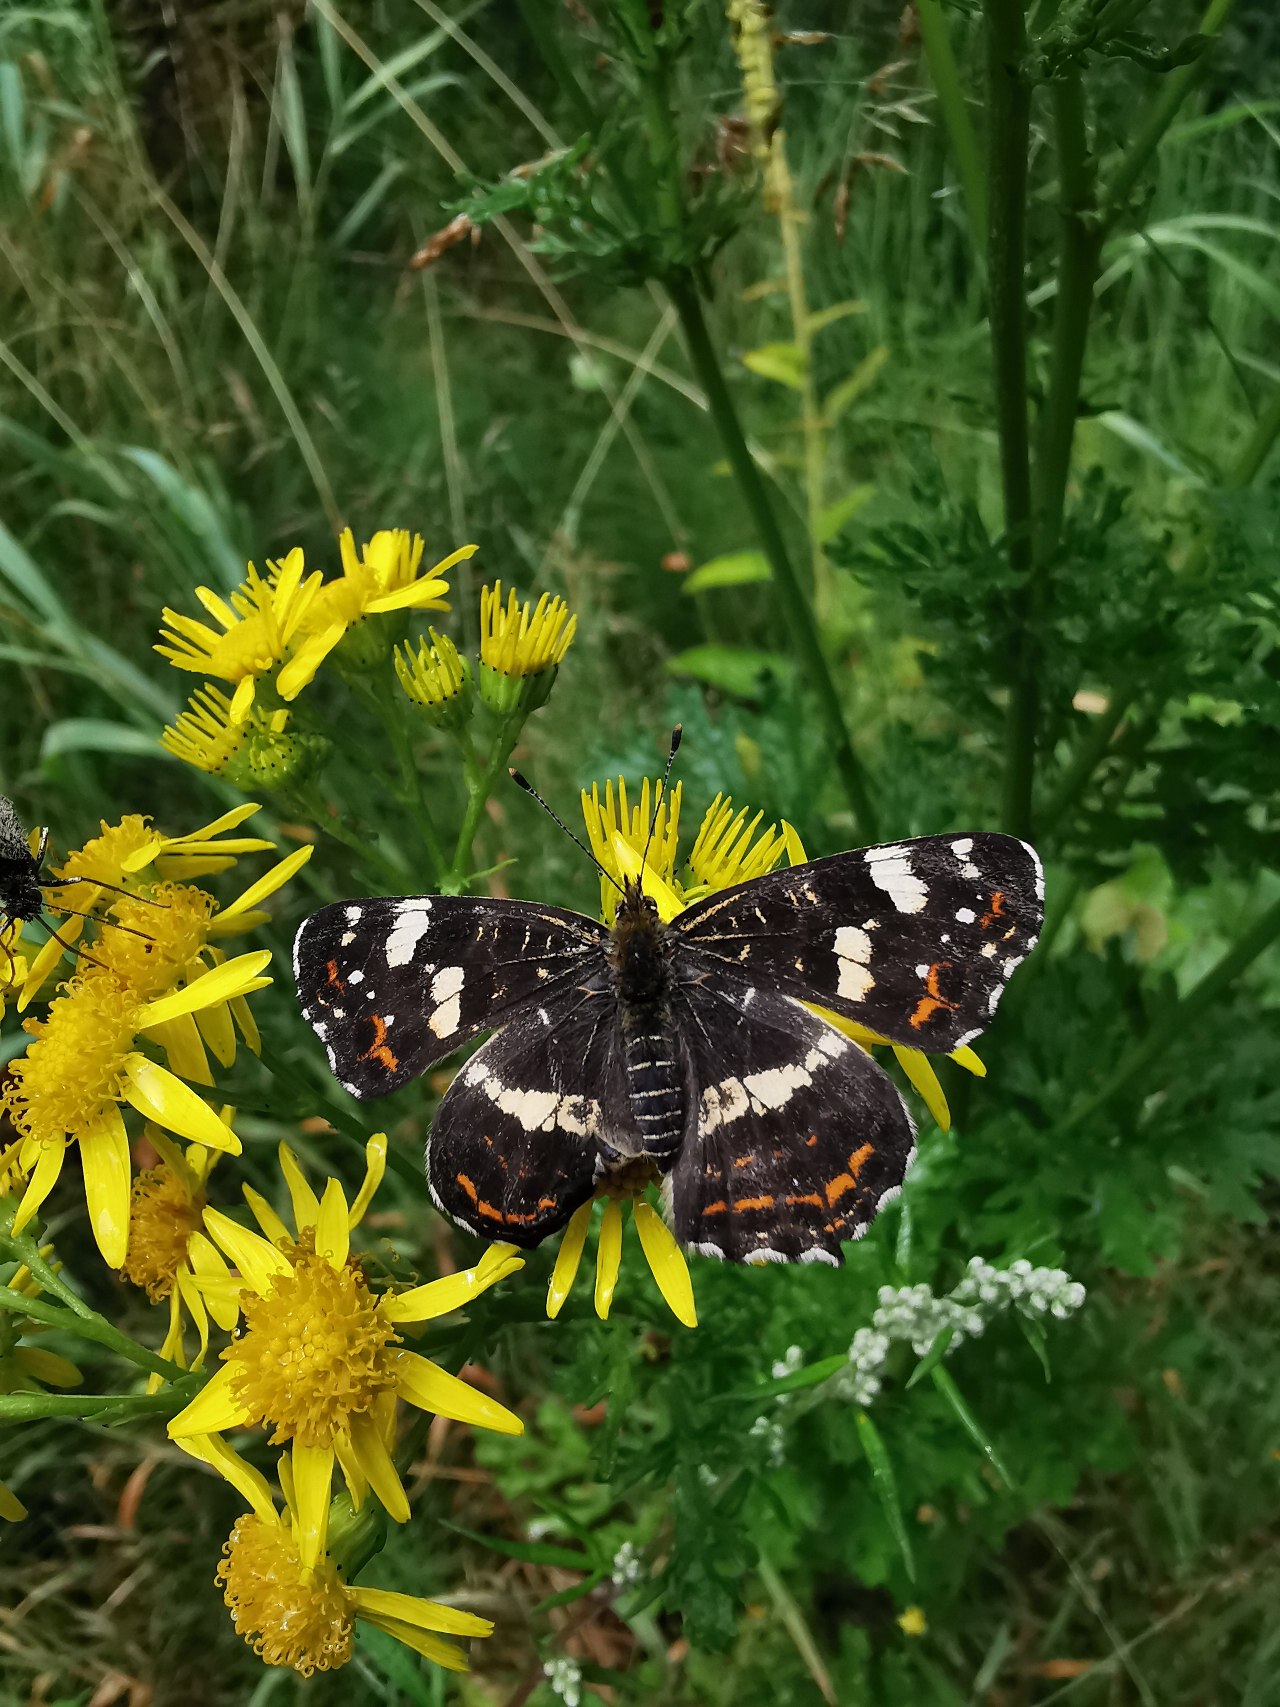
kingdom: Animalia
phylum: Arthropoda
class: Insecta
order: Lepidoptera
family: Nymphalidae
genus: Araschnia
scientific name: Araschnia levana
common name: Nældesommerfugl
